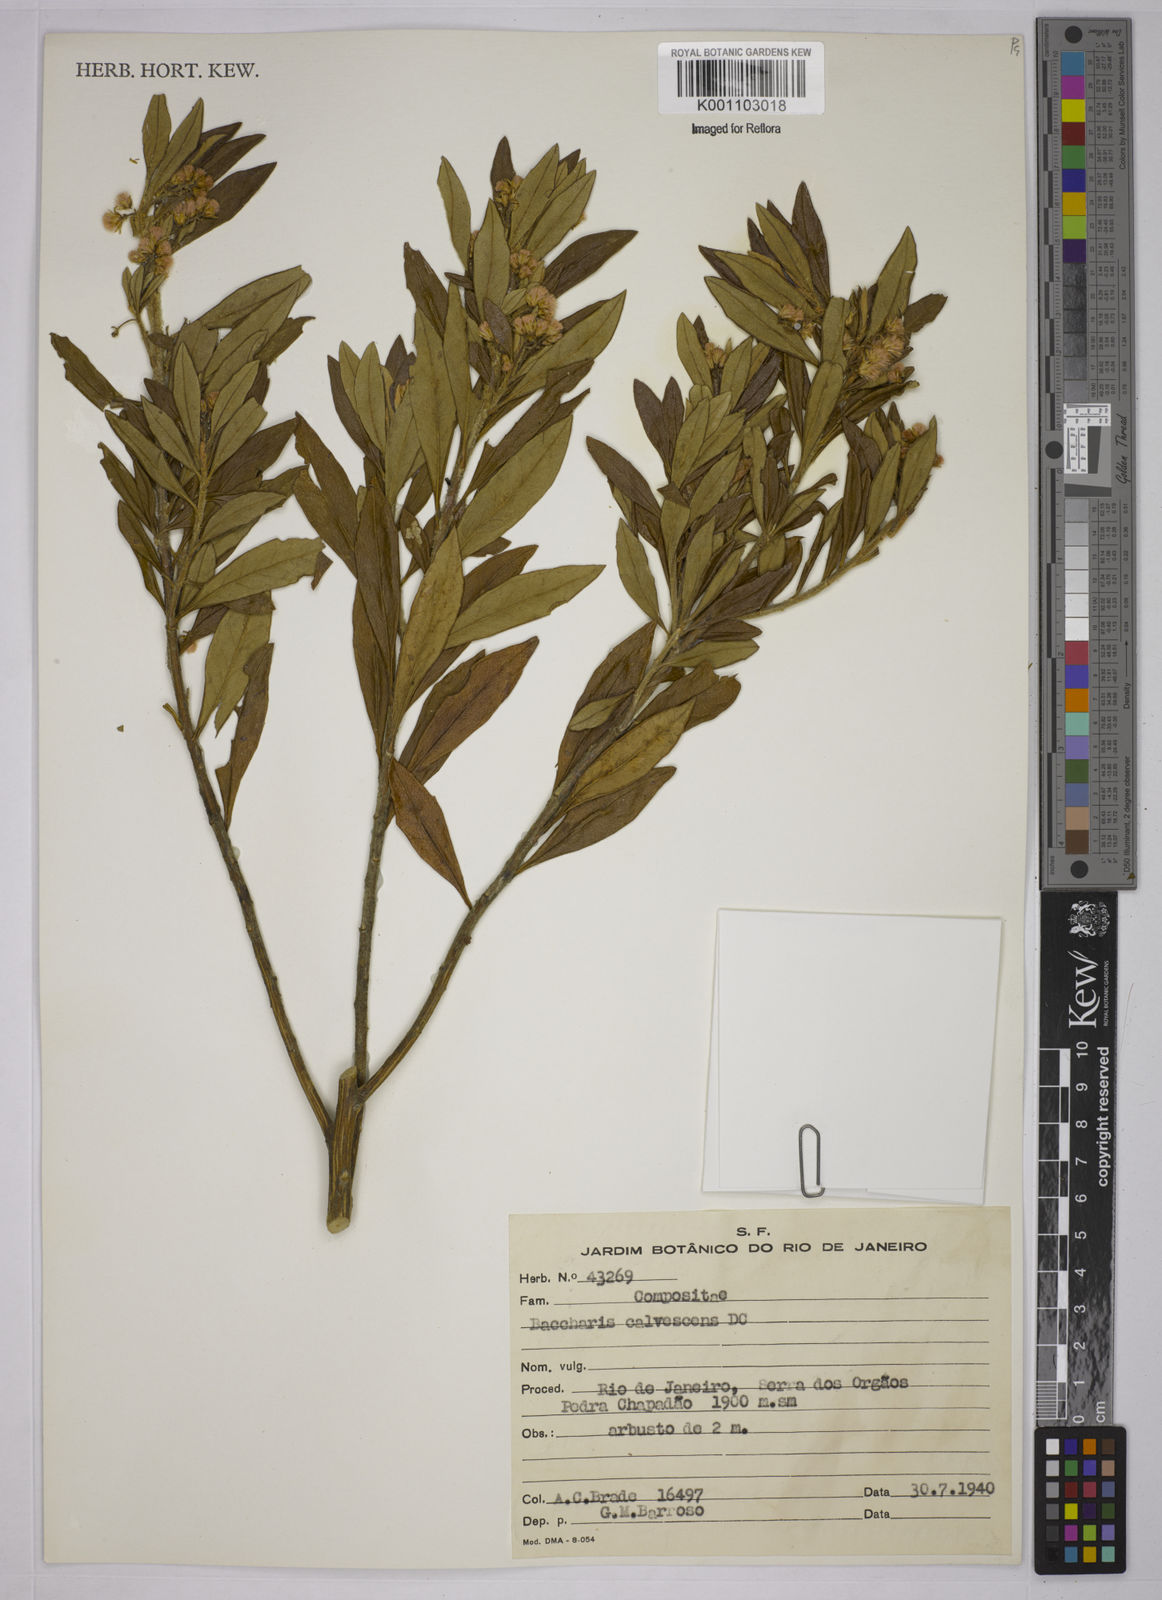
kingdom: Plantae
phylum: Tracheophyta
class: Magnoliopsida
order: Asterales
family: Asteraceae
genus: Baccharis
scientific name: Baccharis calvescens
